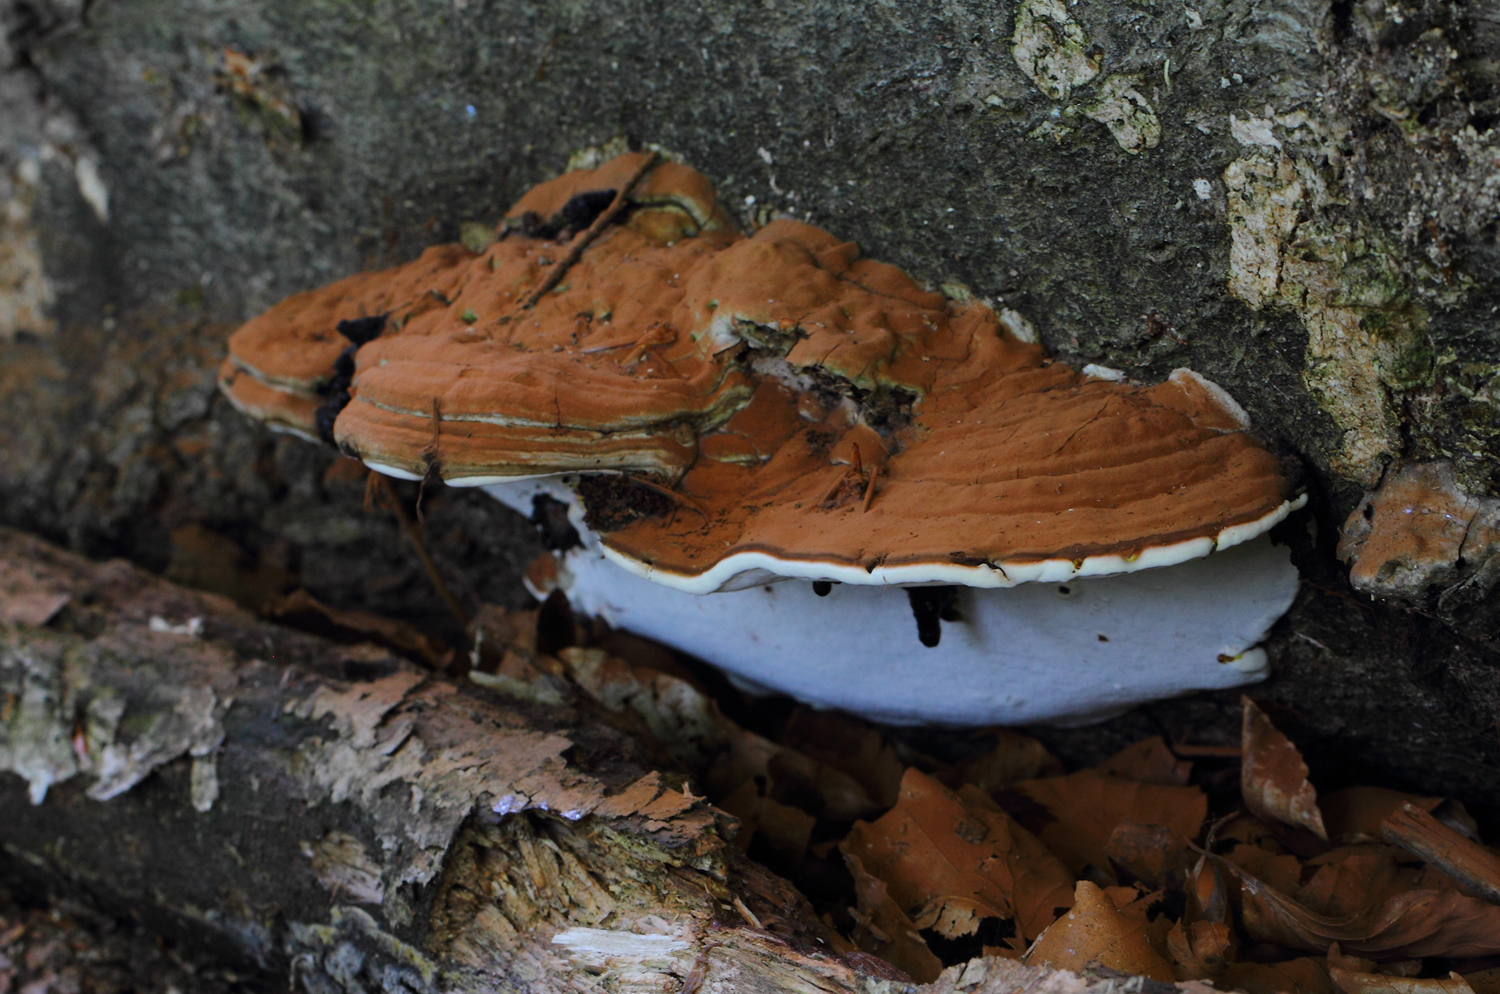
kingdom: Fungi
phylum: Basidiomycota
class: Agaricomycetes
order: Polyporales
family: Polyporaceae
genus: Ganoderma
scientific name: Ganoderma applanatum
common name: flad lakporesvamp
